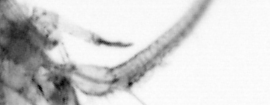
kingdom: Animalia
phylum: Arthropoda
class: Copepoda
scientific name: Copepoda
